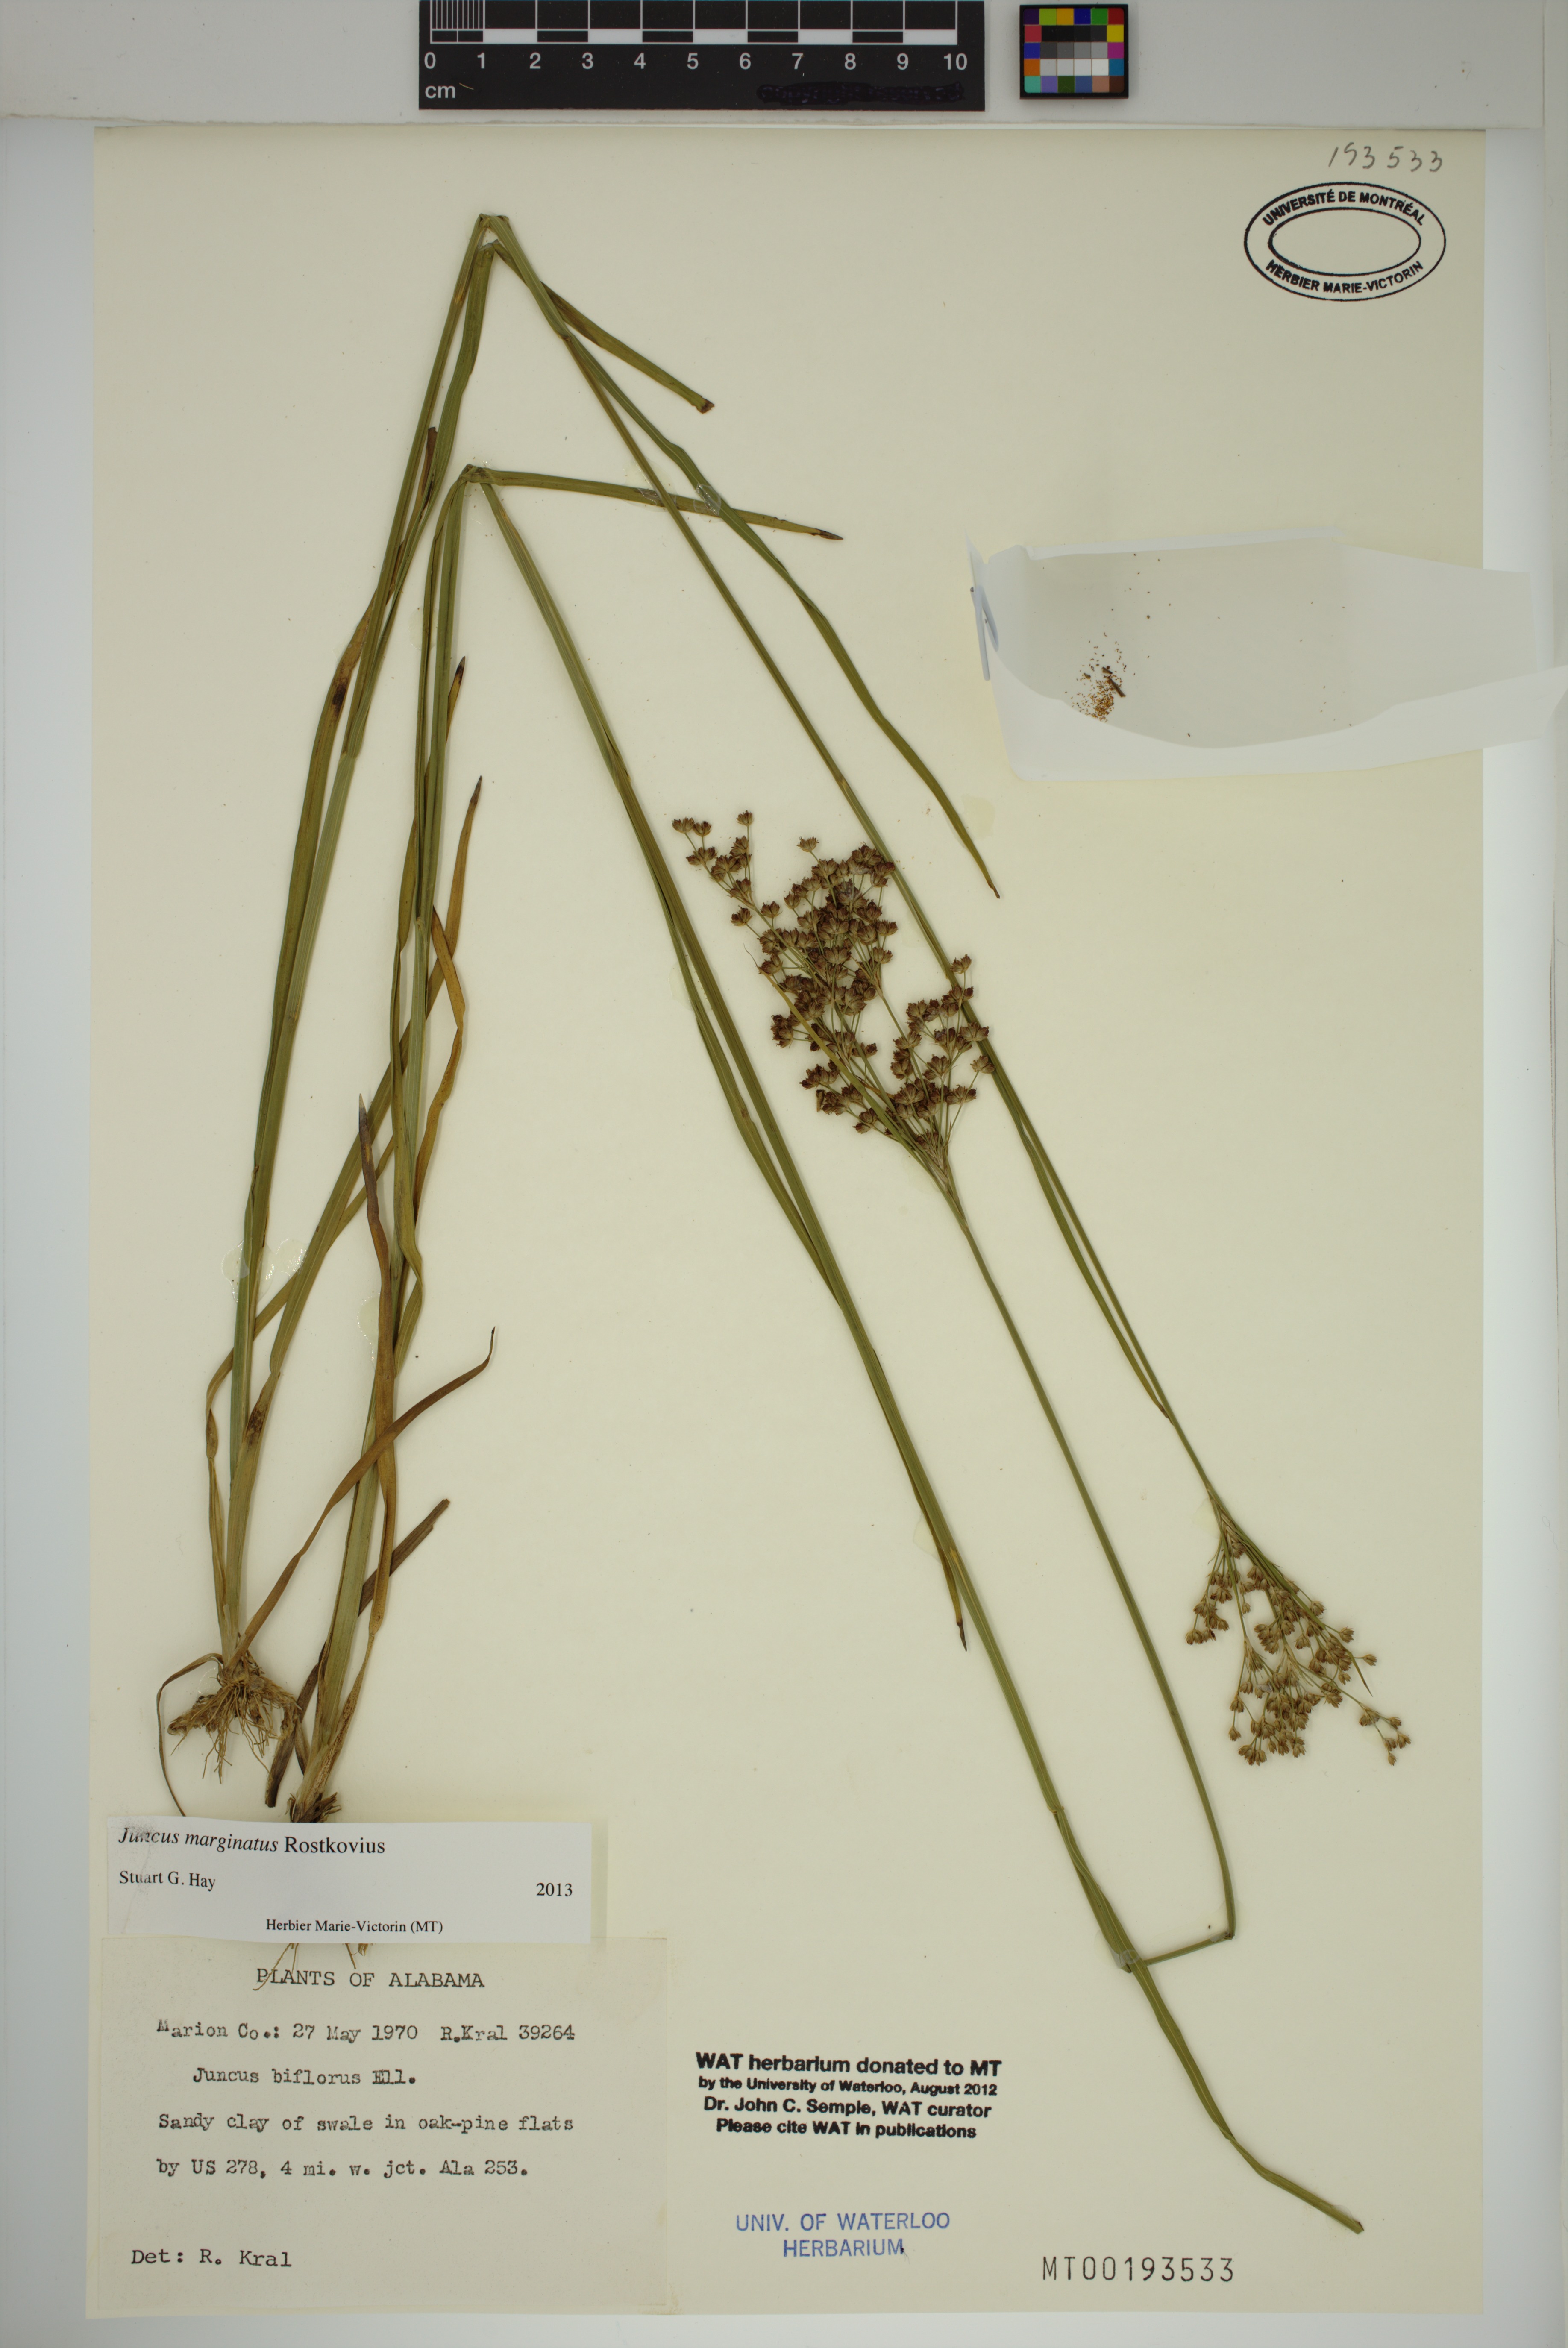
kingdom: Plantae
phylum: Tracheophyta
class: Liliopsida
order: Poales
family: Juncaceae
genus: Juncus
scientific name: Juncus marginatus
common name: Grass-leaf rush
